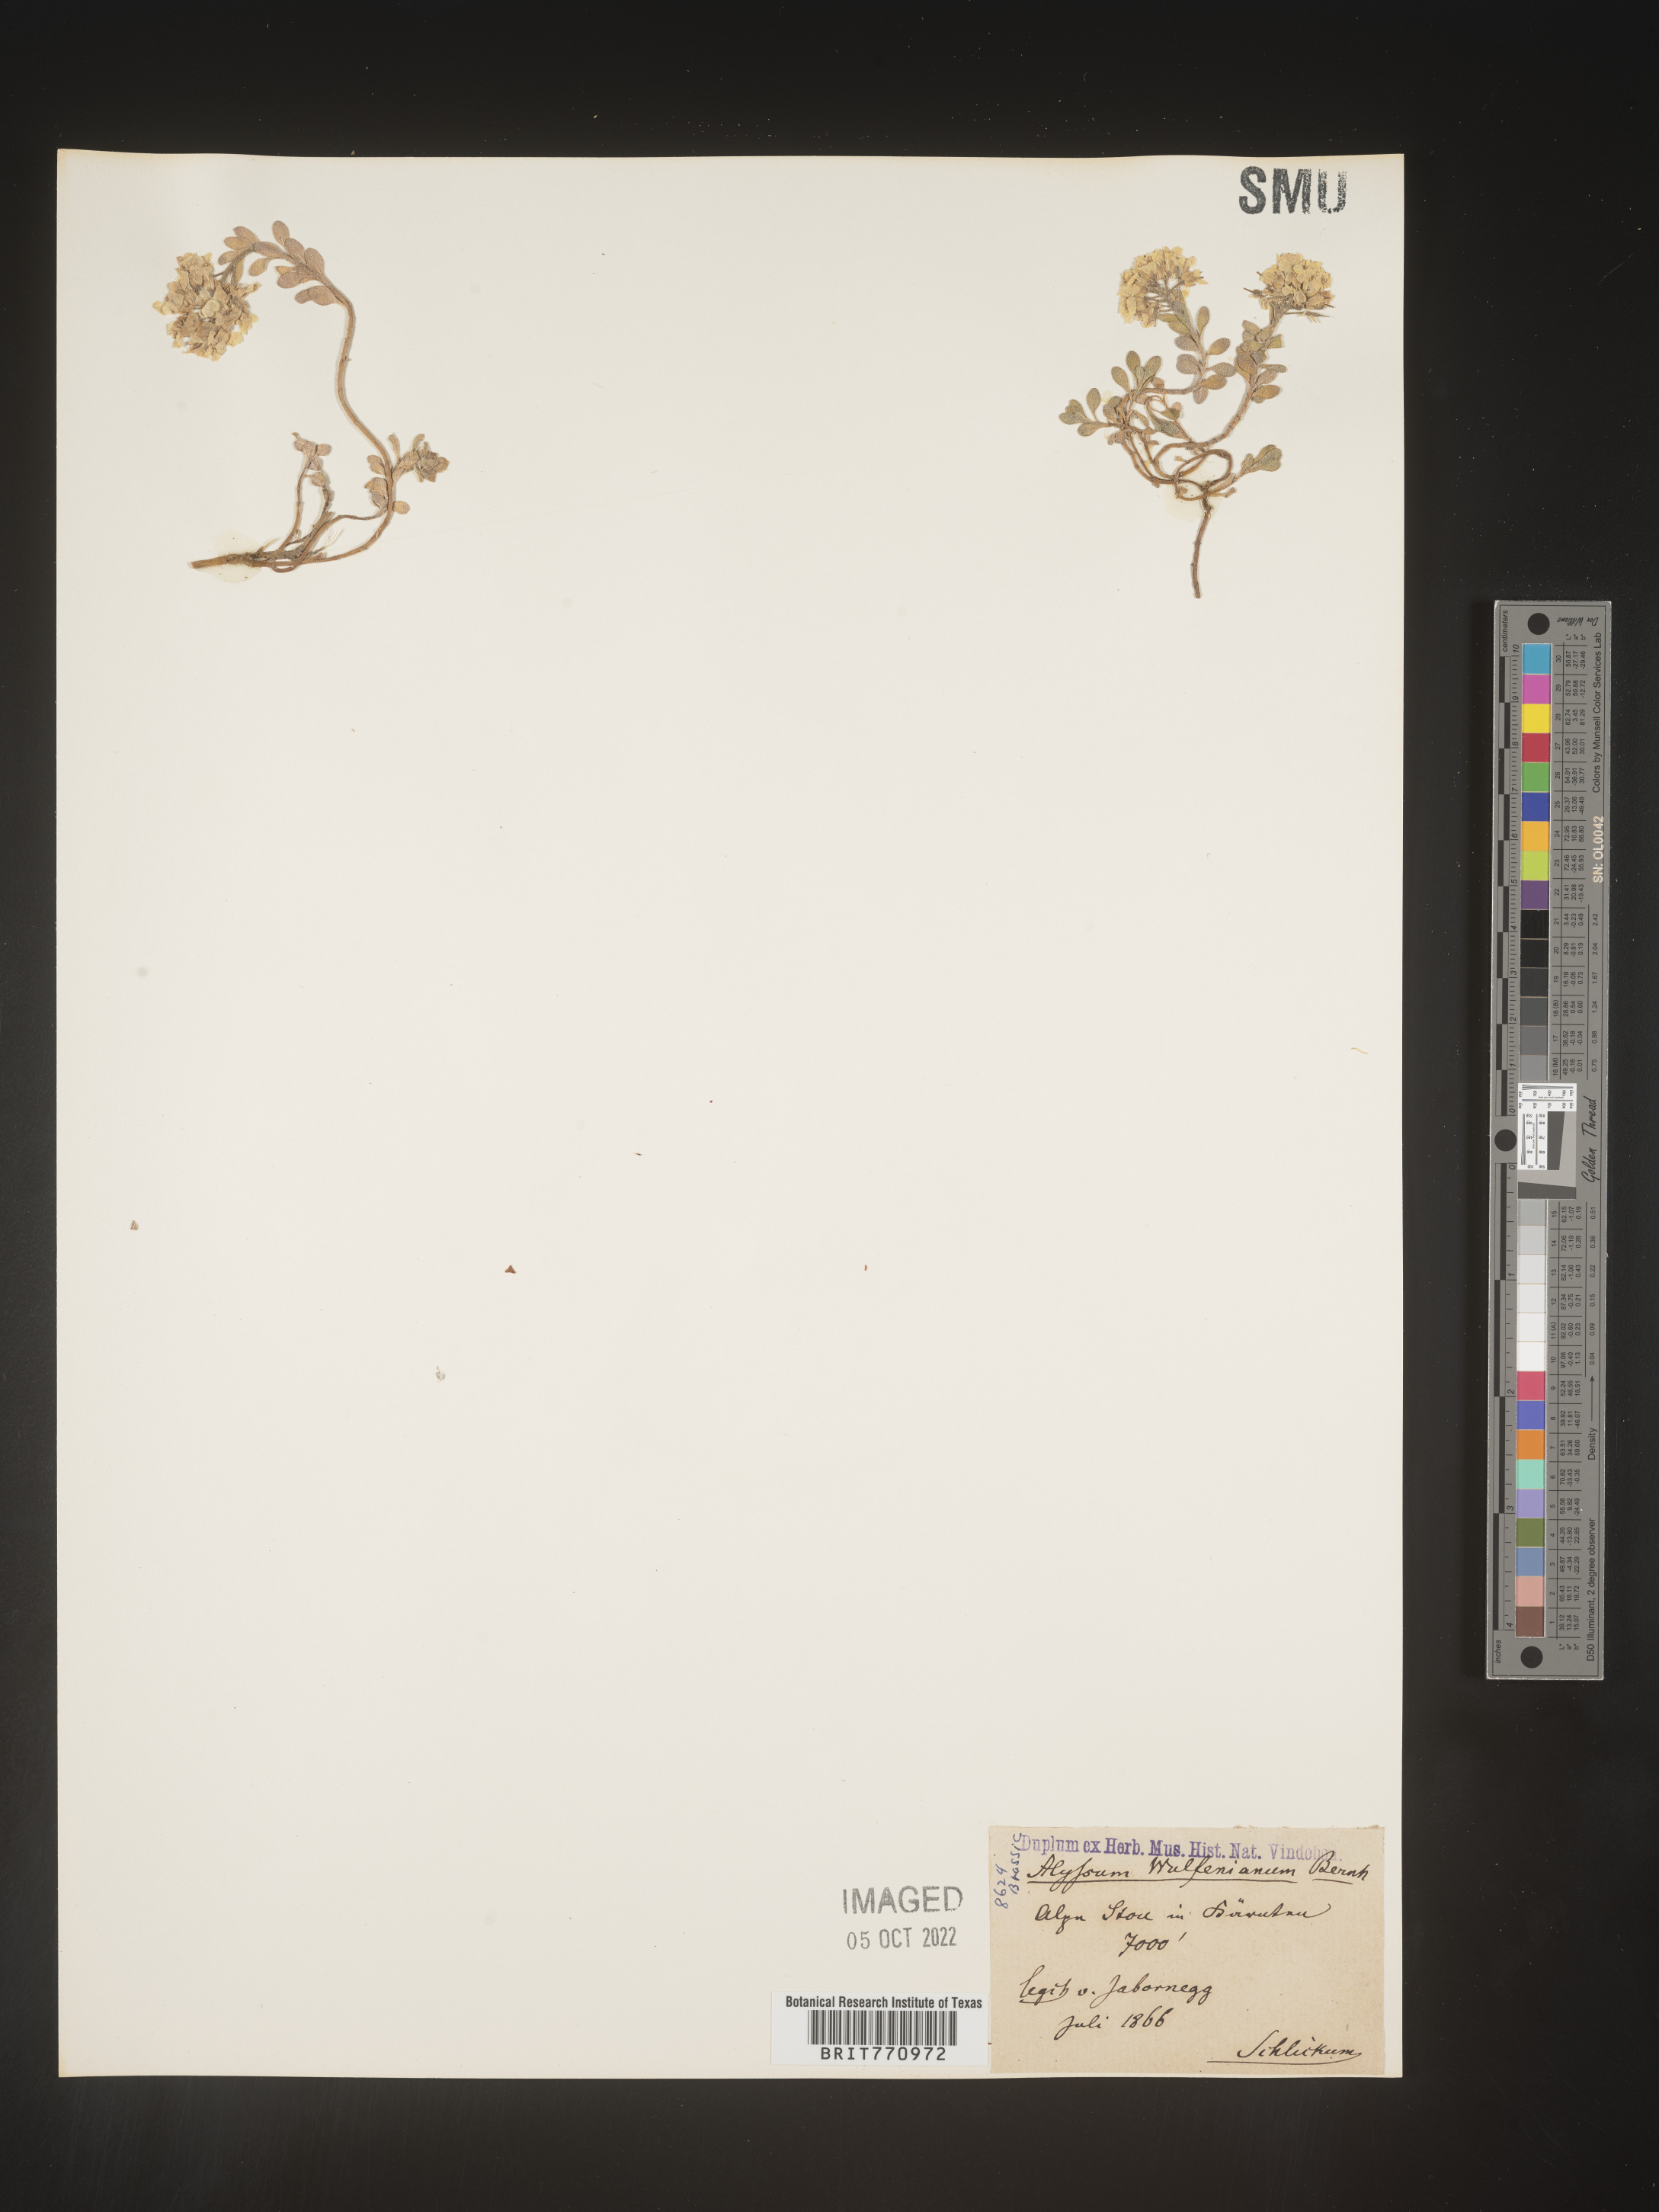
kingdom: Plantae
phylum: Tracheophyta
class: Magnoliopsida
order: Brassicales
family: Brassicaceae
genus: Alyssum
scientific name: Alyssum
